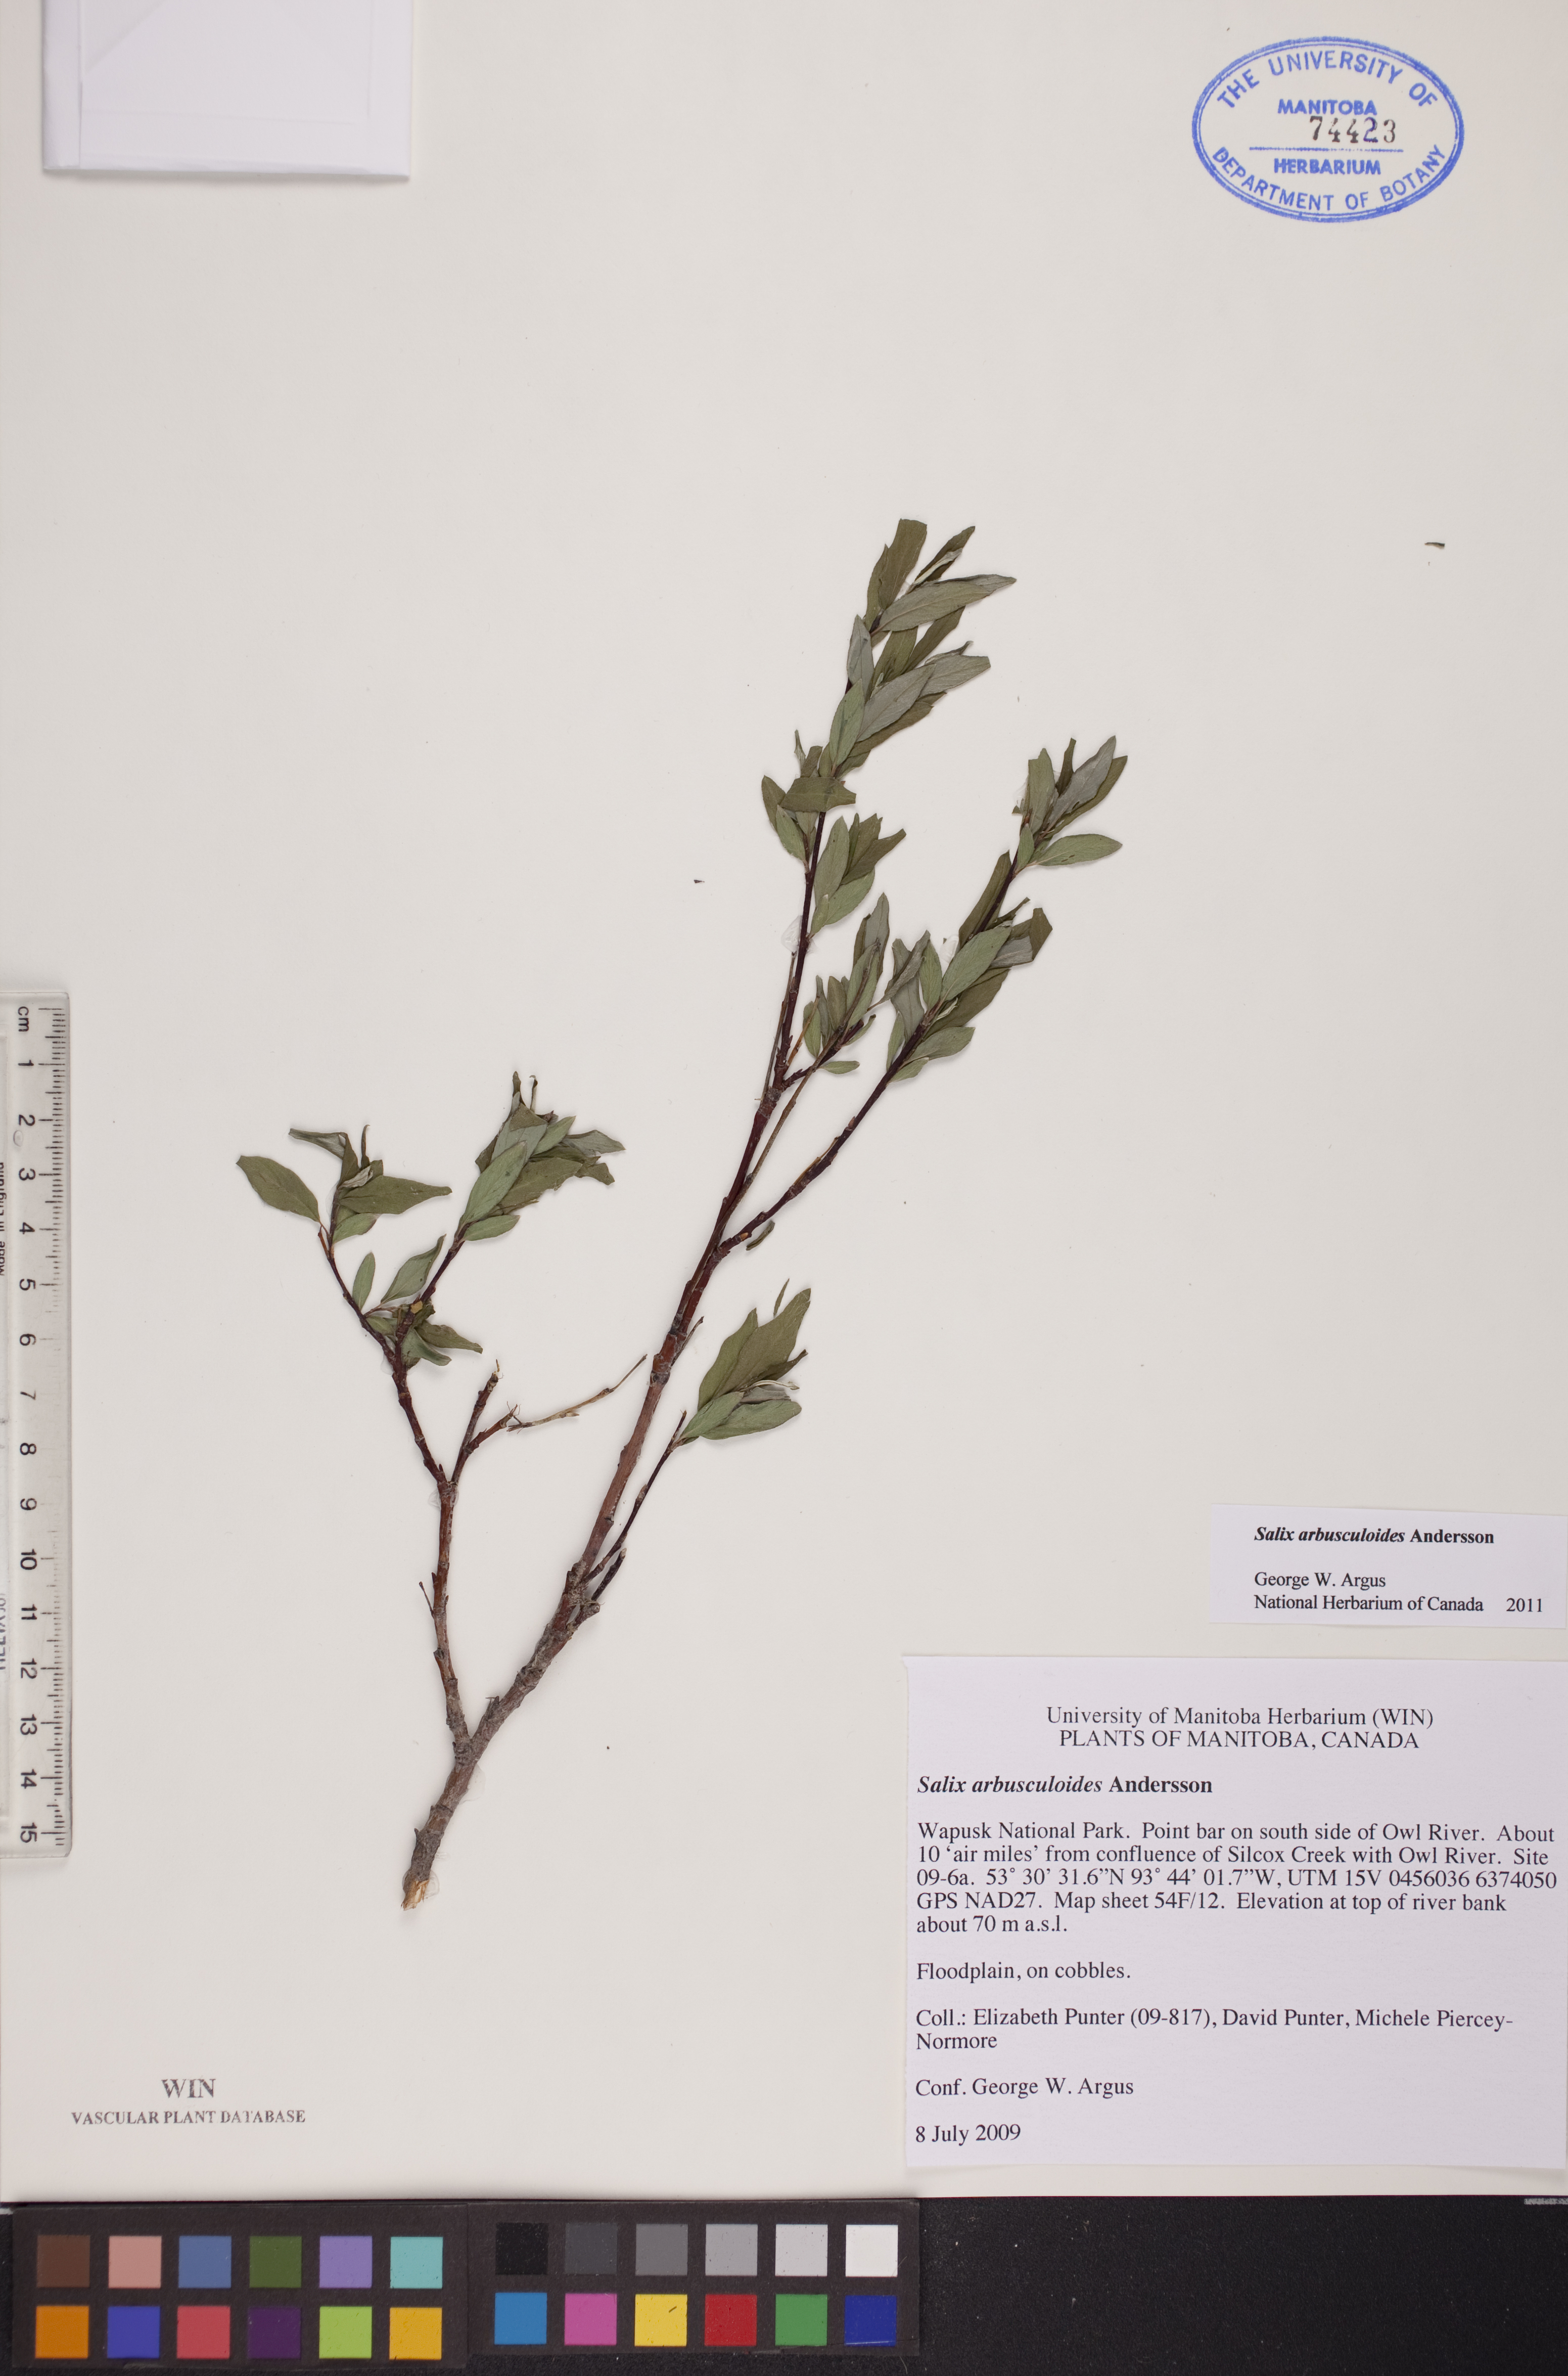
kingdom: Plantae
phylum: Tracheophyta
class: Magnoliopsida
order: Malpighiales
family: Salicaceae
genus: Salix
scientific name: Salix arbusculoides
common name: Little-tree willow
